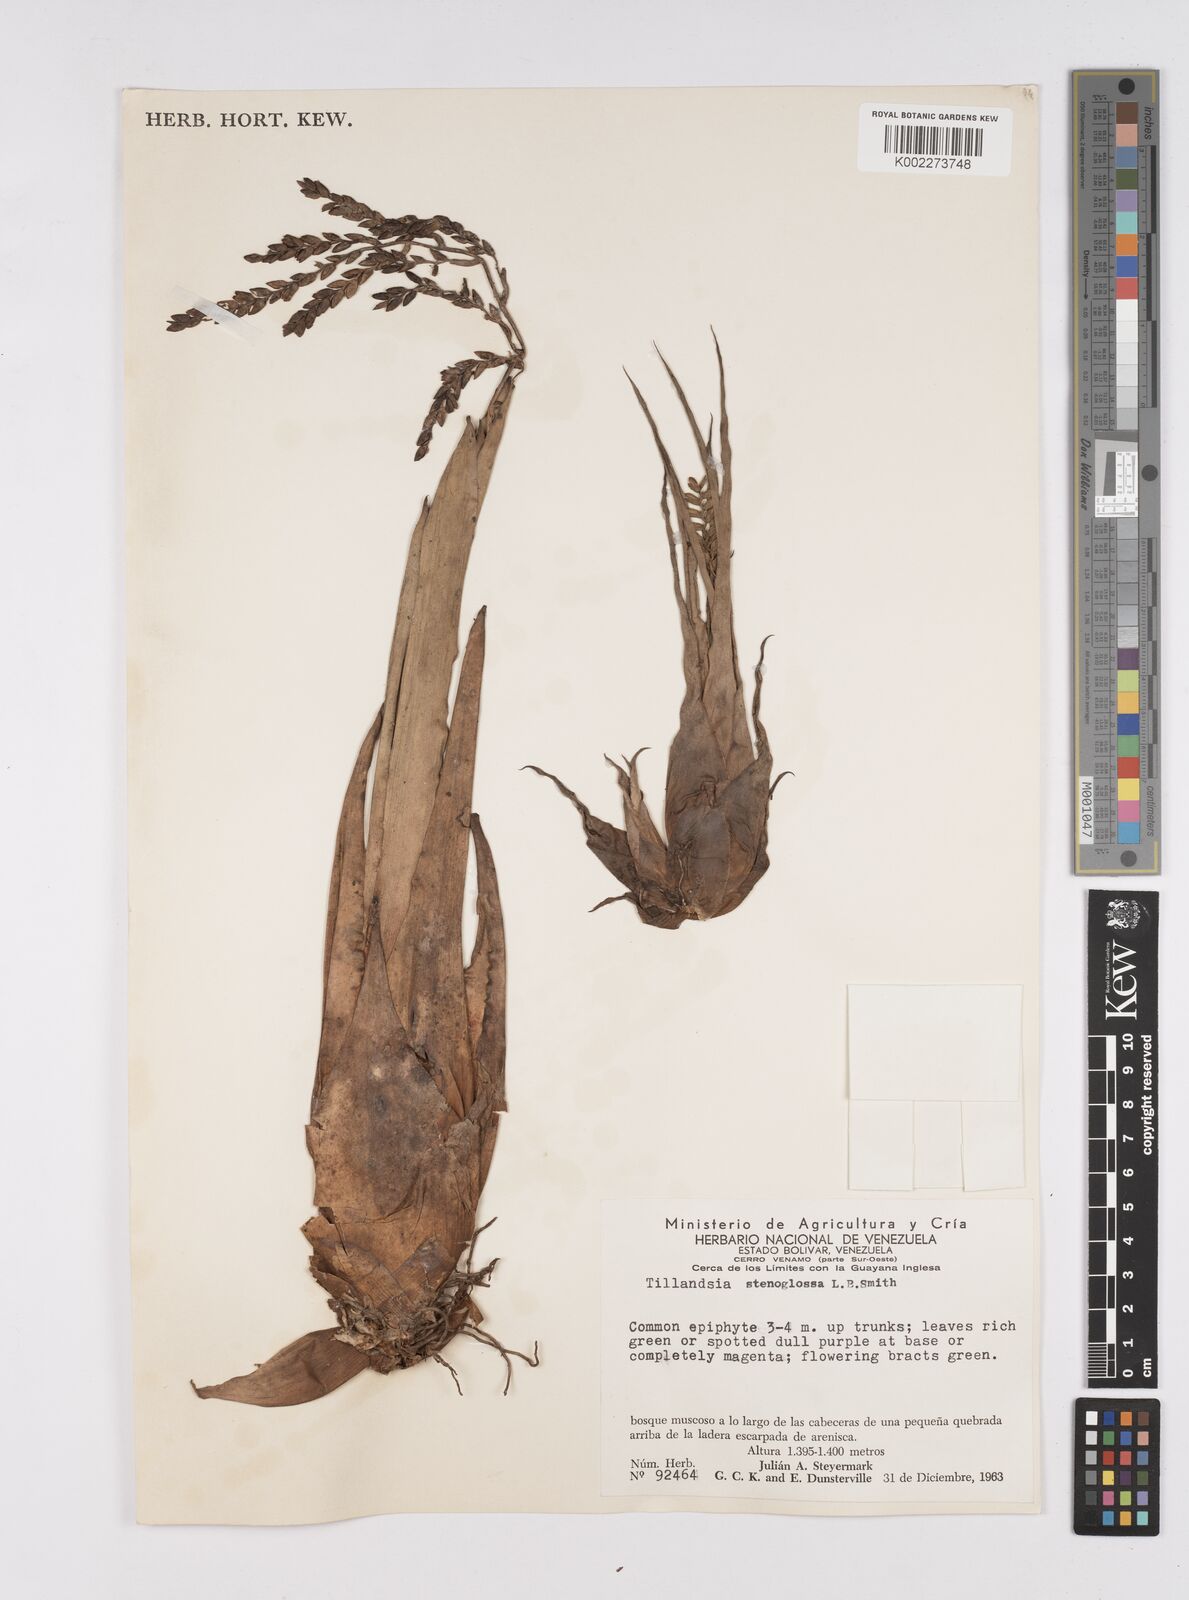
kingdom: Plantae
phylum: Tracheophyta
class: Liliopsida
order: Poales
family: Bromeliaceae
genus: Racinaea
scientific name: Racinaea spiculosa
